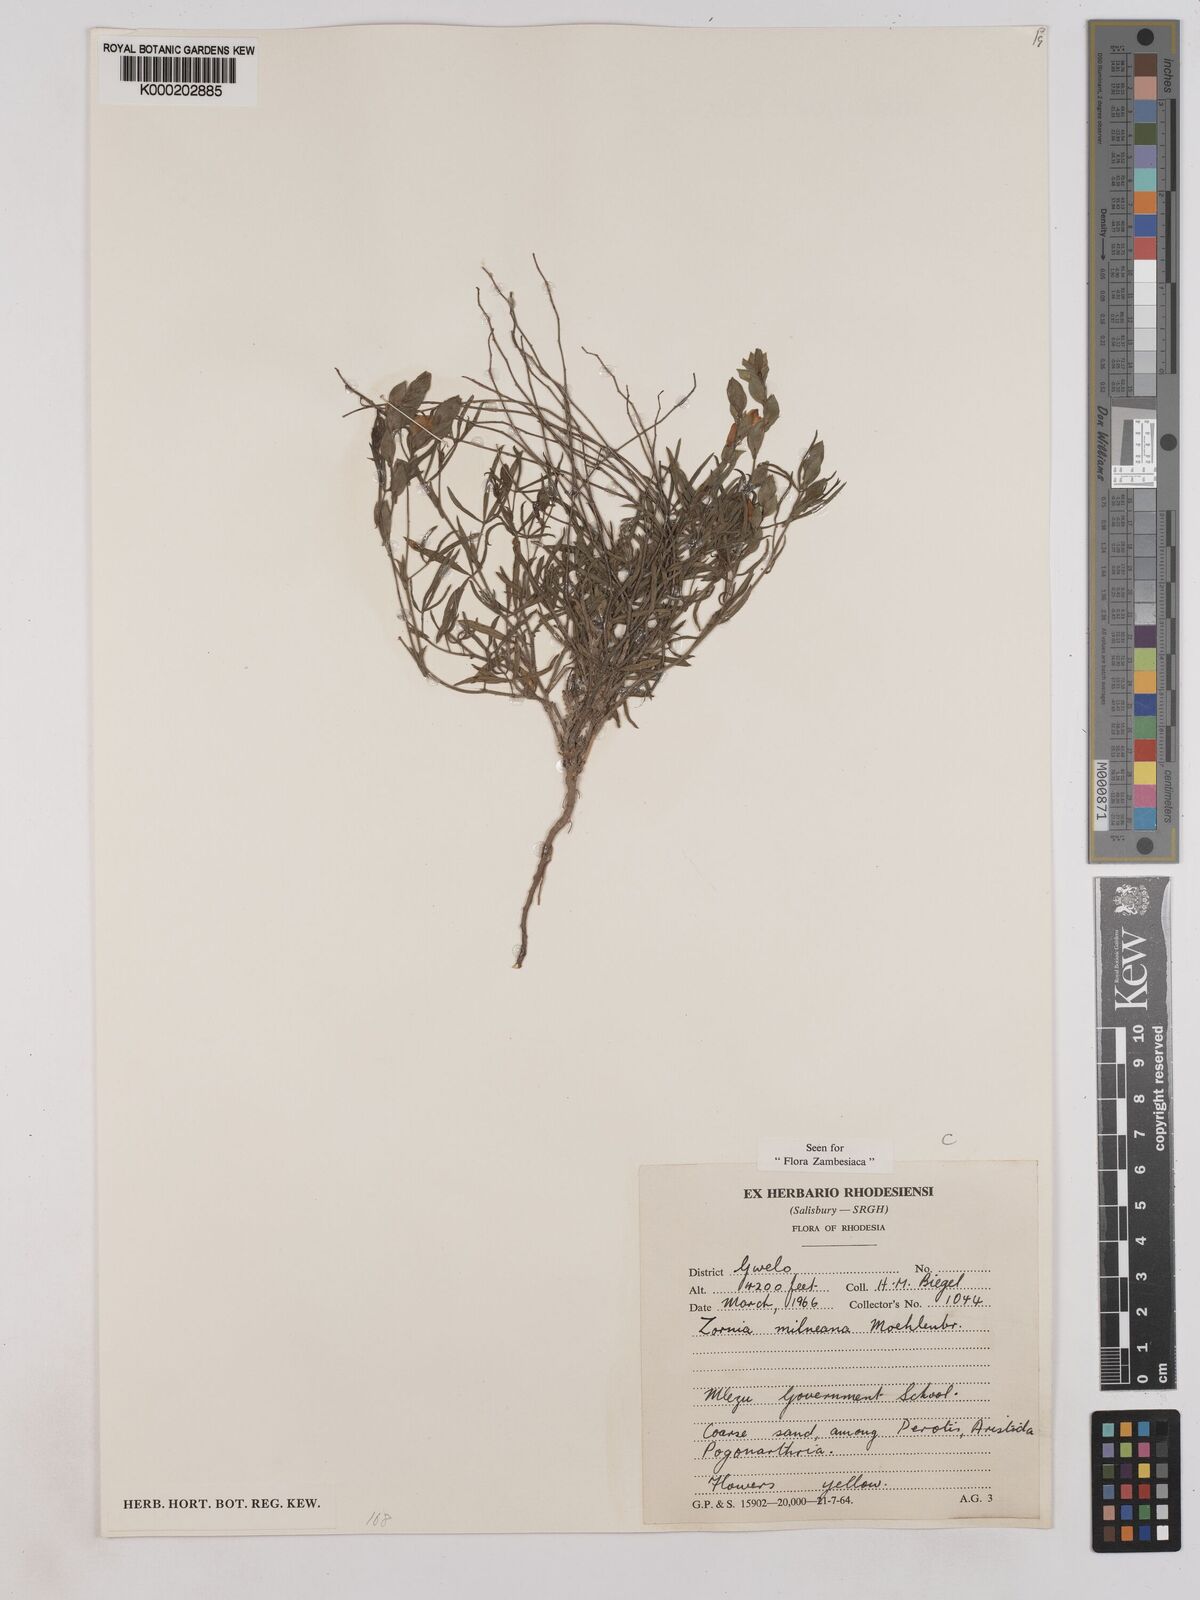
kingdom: Plantae
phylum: Tracheophyta
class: Magnoliopsida
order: Fabales
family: Fabaceae
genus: Zornia
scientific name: Zornia milneana
